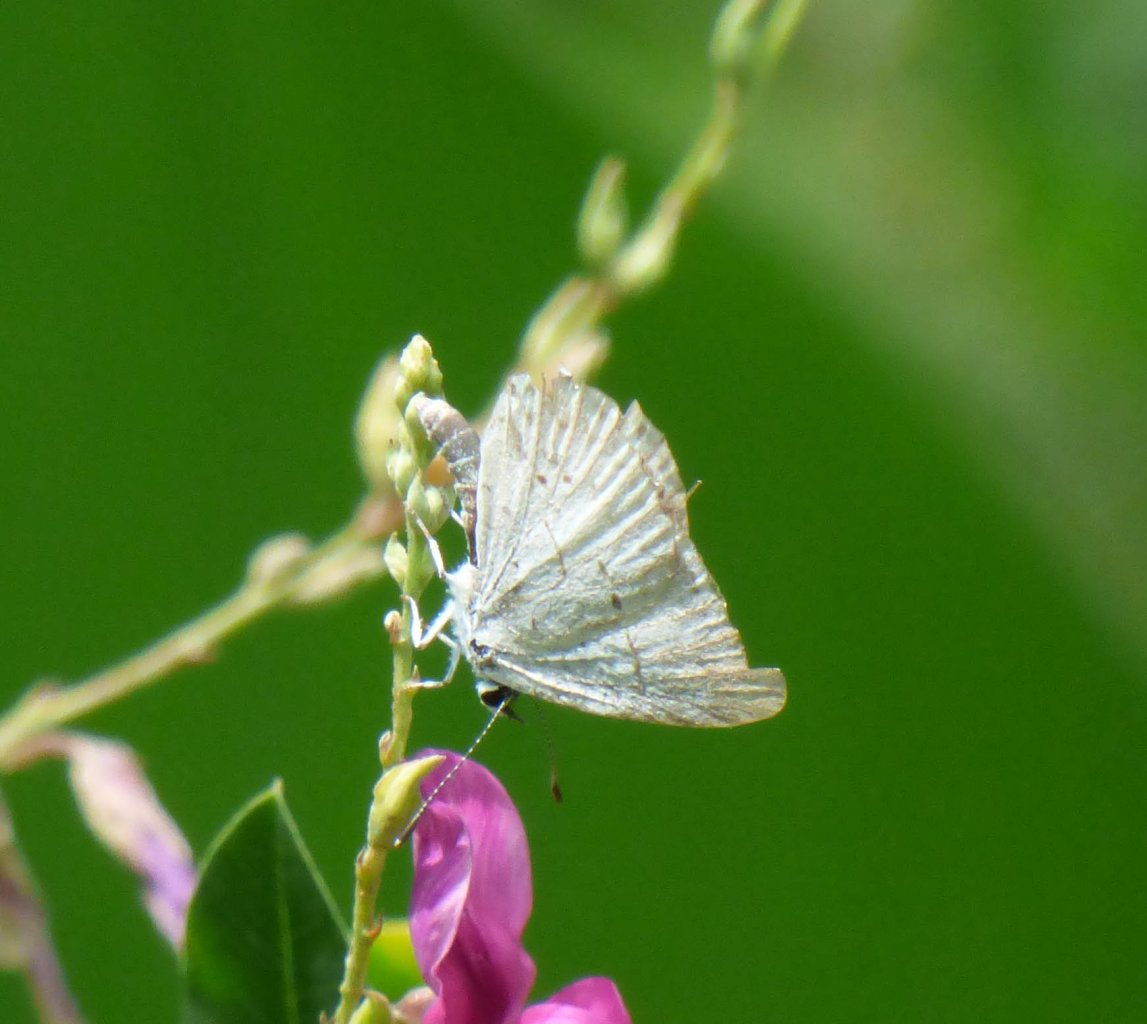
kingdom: Animalia
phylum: Arthropoda
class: Insecta
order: Lepidoptera
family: Lycaenidae
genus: Cyaniris
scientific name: Cyaniris neglecta
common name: Summer Azure
